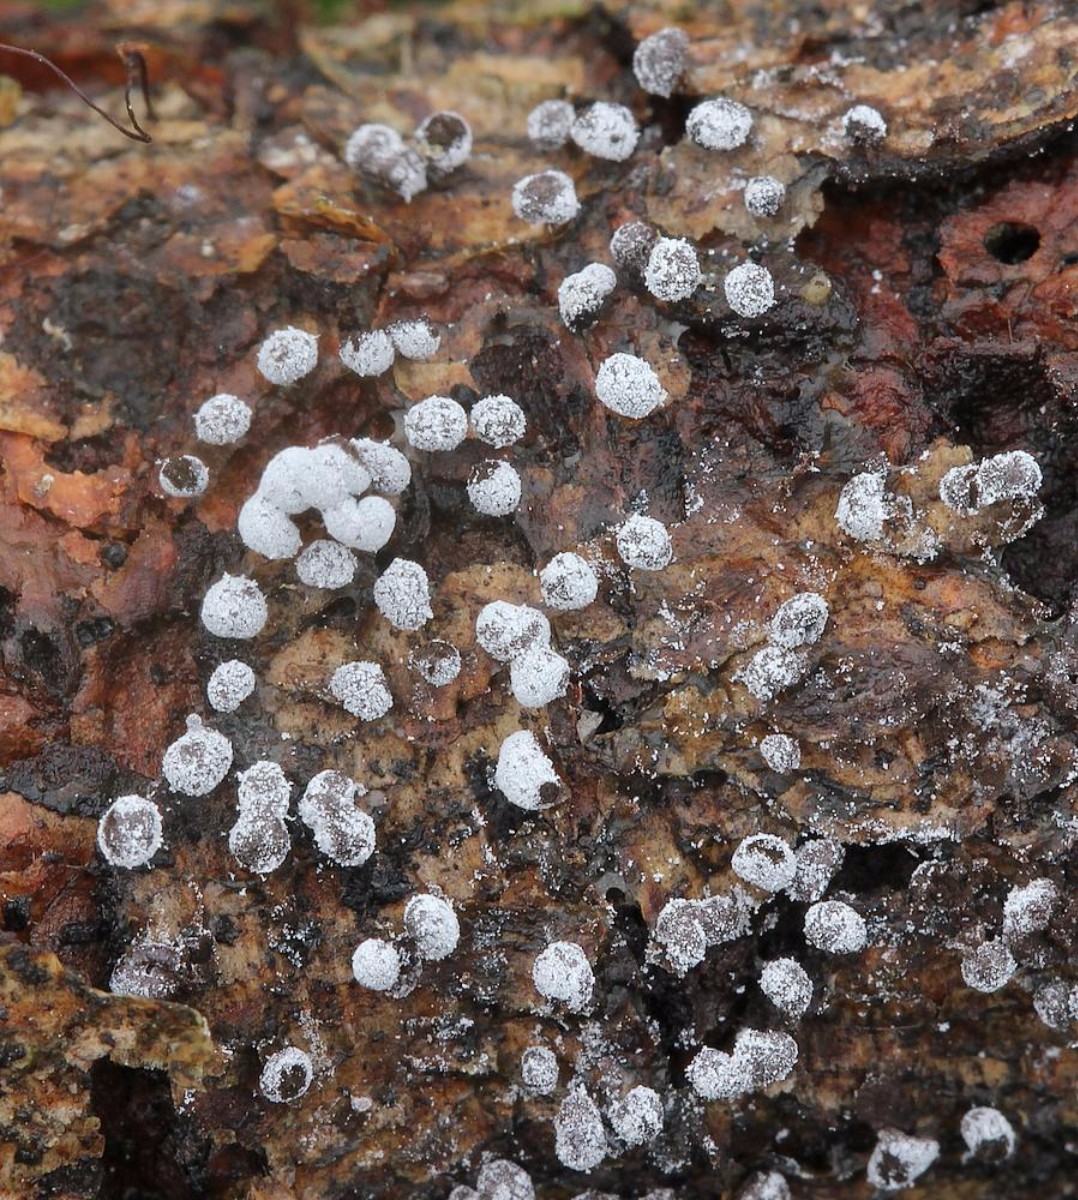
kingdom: Protozoa
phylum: Mycetozoa
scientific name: Mycetozoa
